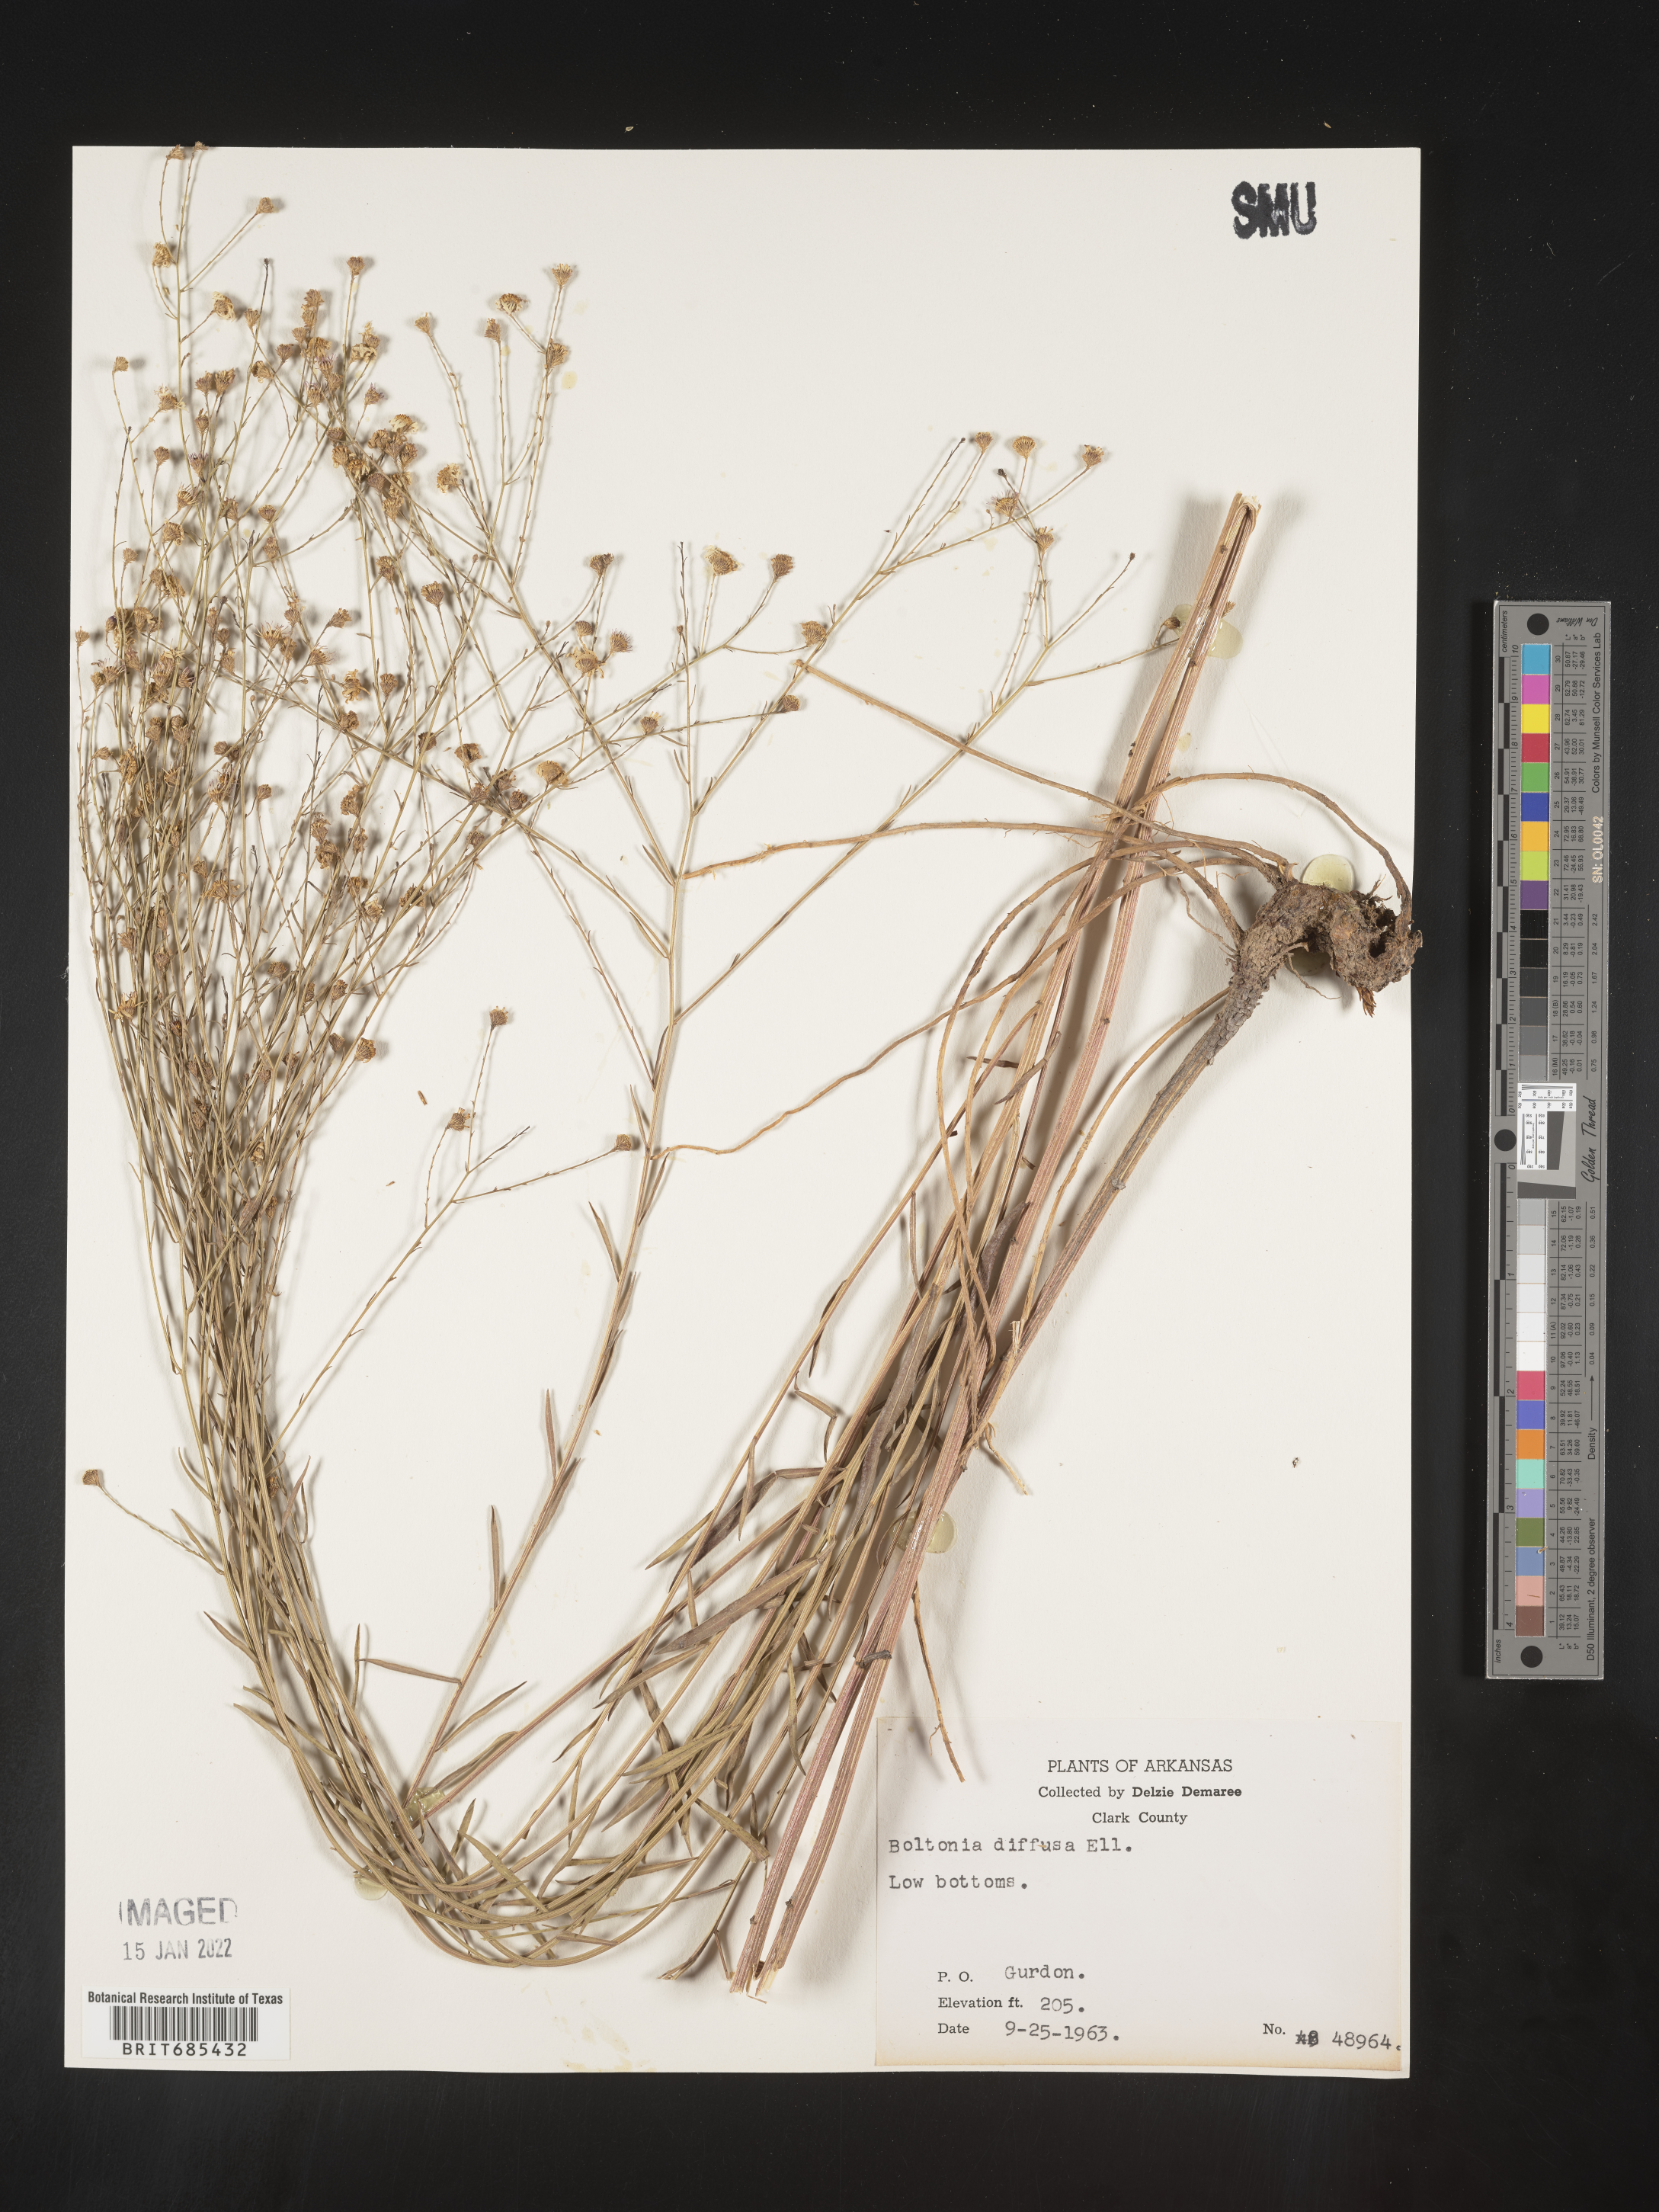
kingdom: Plantae
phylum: Tracheophyta
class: Magnoliopsida
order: Asterales
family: Asteraceae
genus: Boltonia
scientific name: Boltonia diffusa
